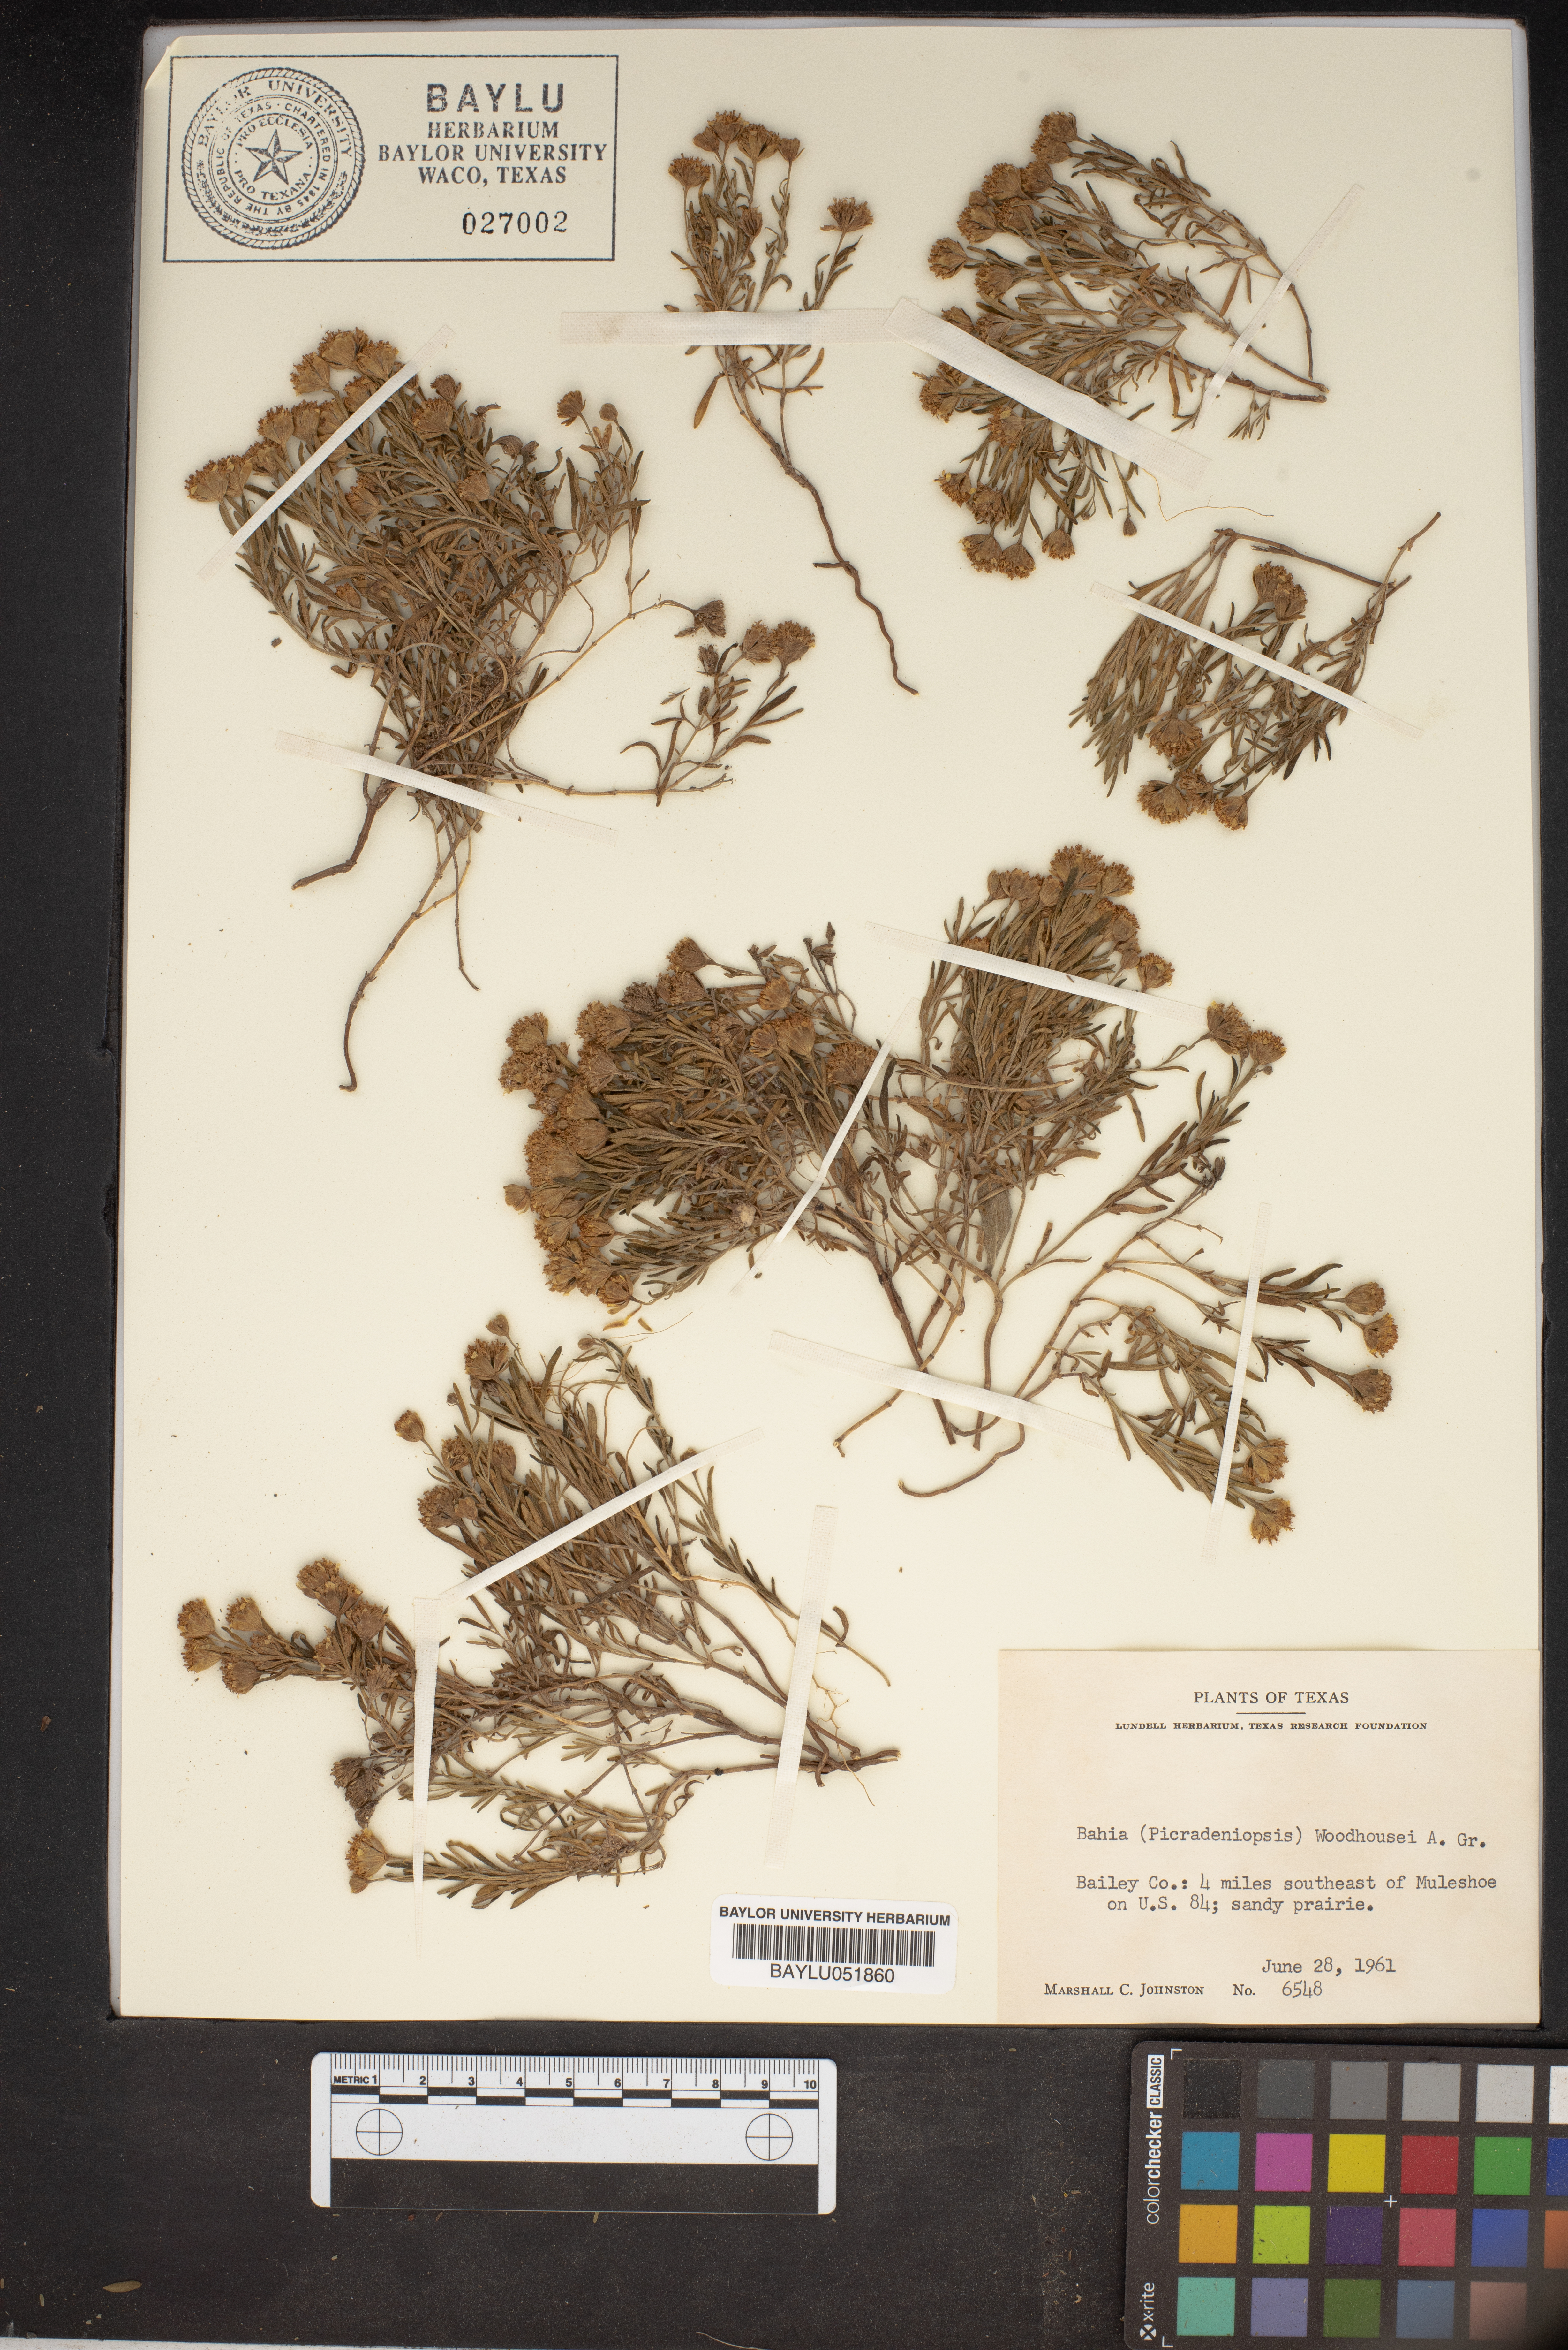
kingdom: Plantae
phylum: Tracheophyta
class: Magnoliopsida
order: Asterales
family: Asteraceae
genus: Picradeniopsis
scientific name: Picradeniopsis woodhousei
